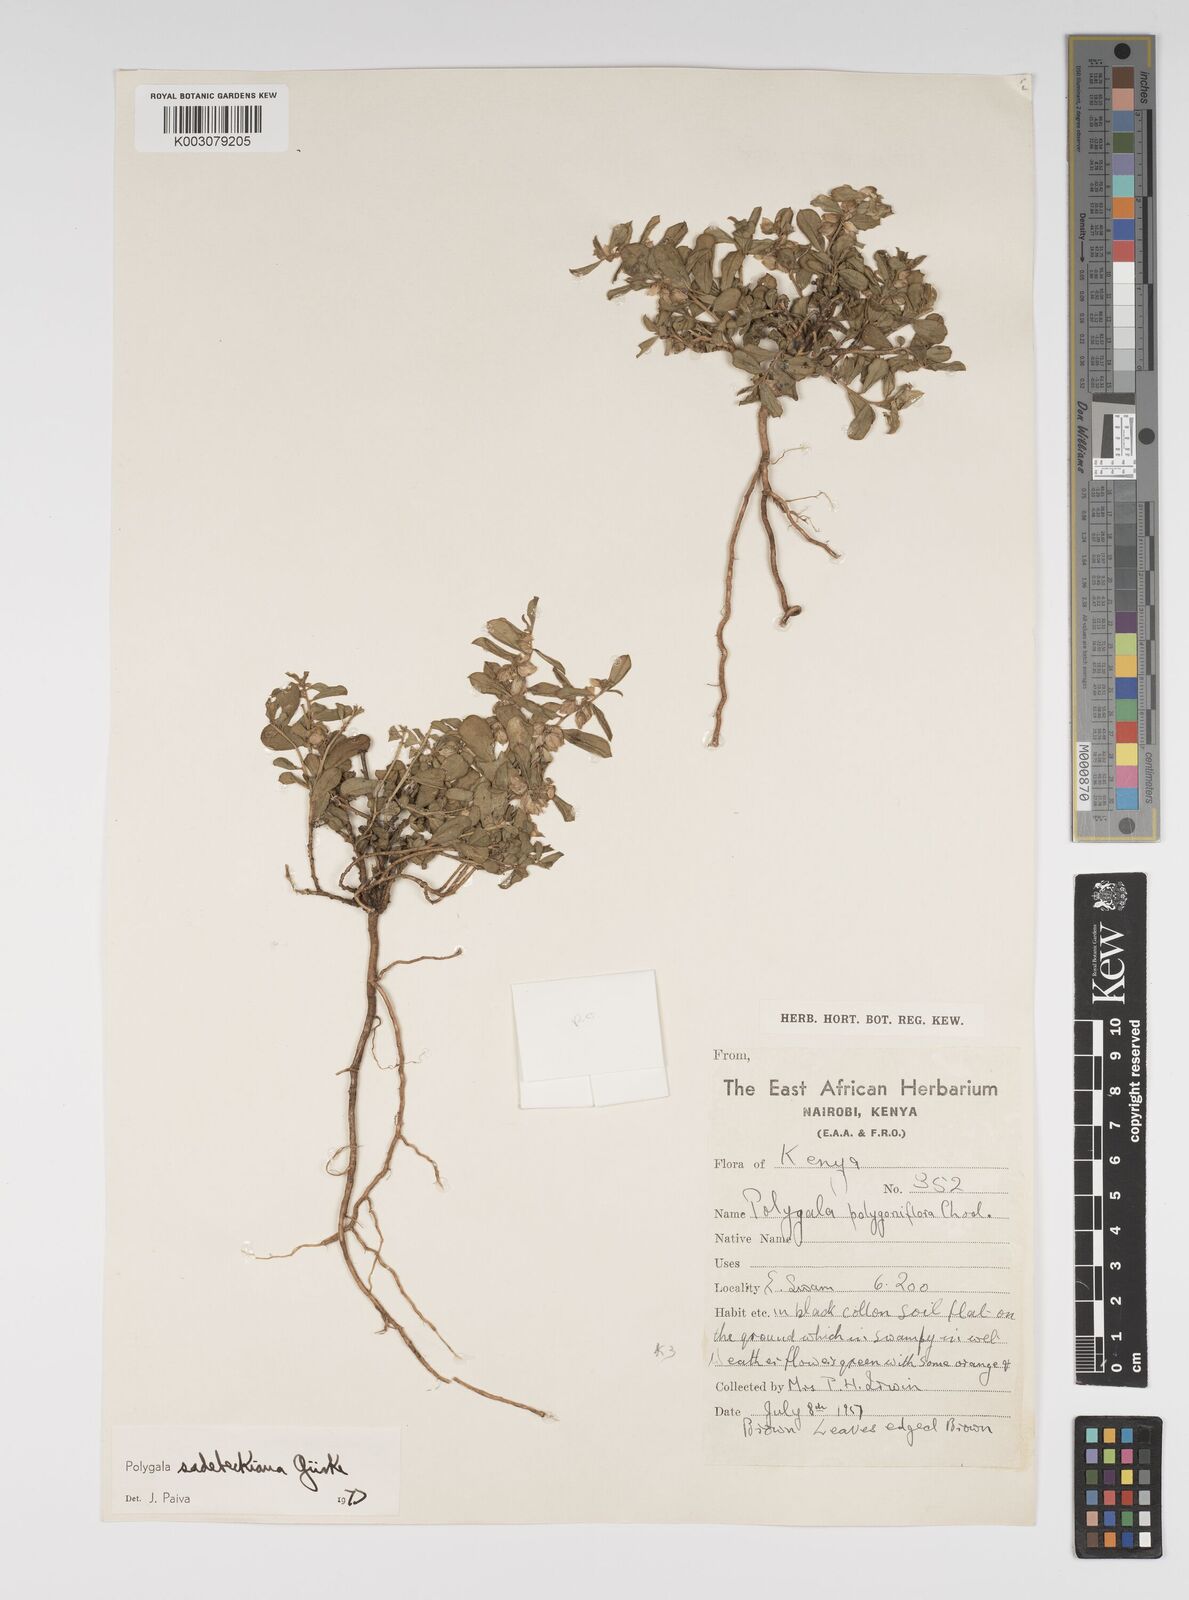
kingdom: Plantae
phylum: Tracheophyta
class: Magnoliopsida
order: Fabales
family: Polygalaceae
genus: Polygala
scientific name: Polygala sadebeckiana
